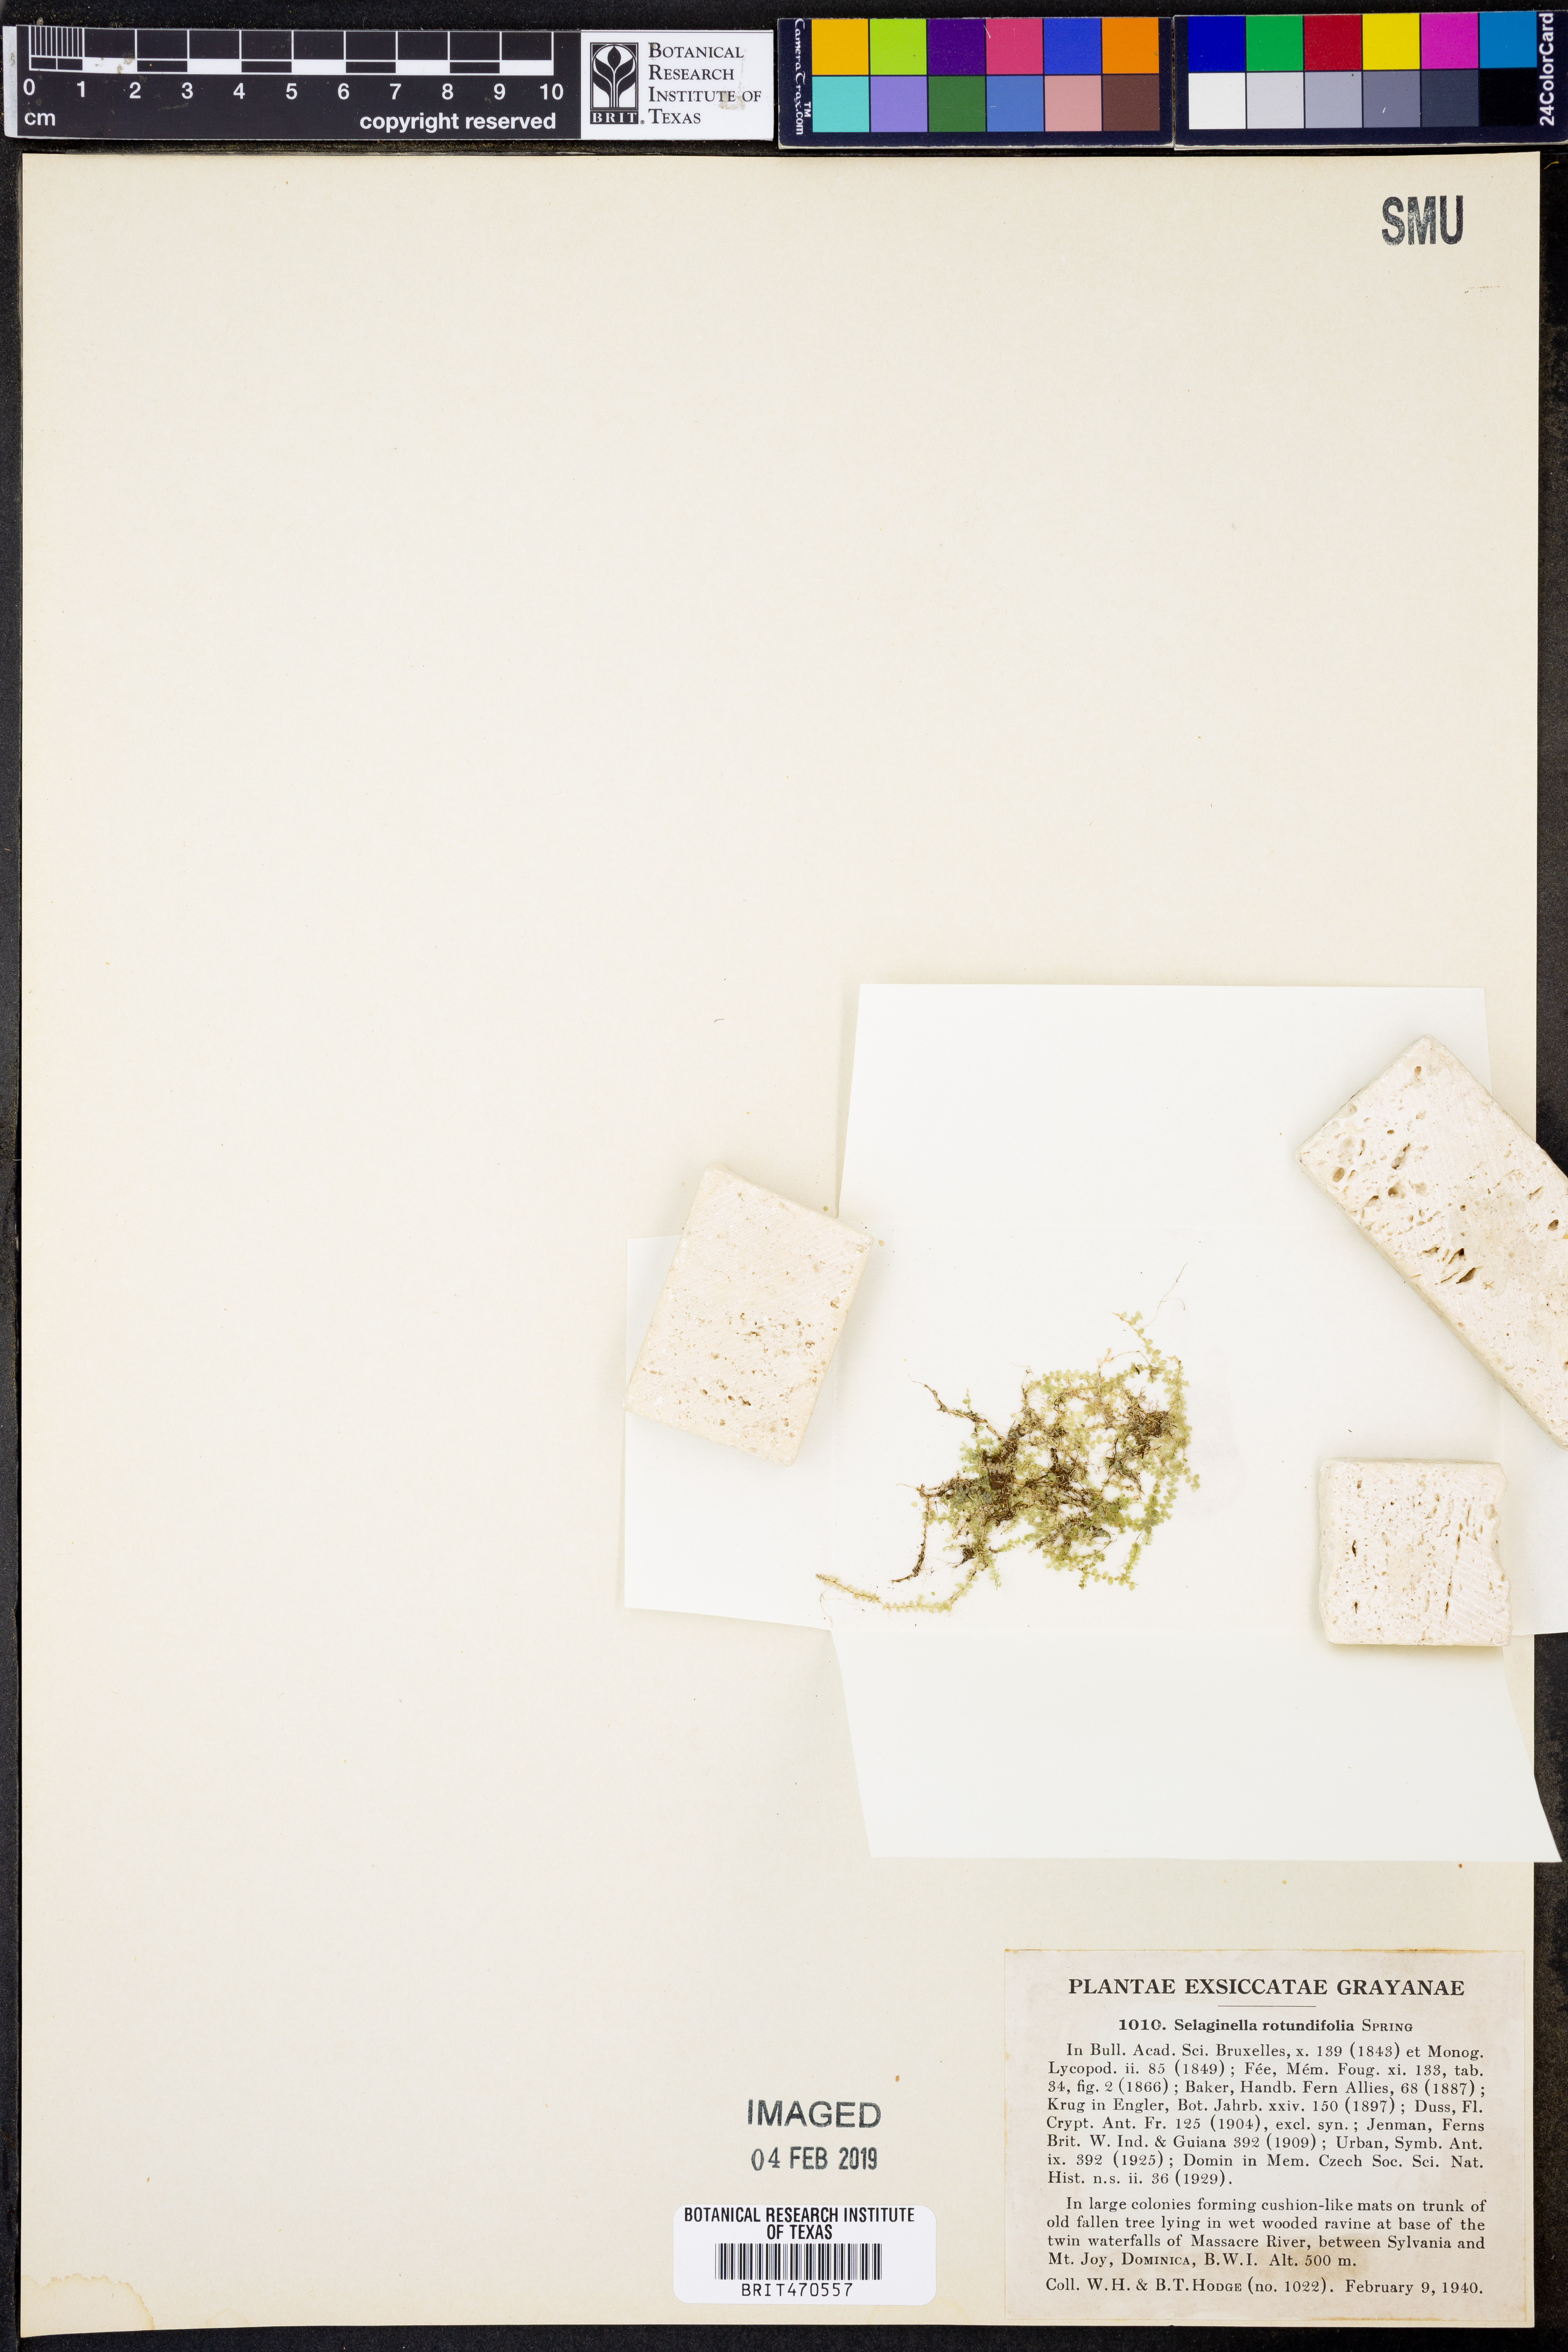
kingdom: Plantae
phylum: Tracheophyta
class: Lycopodiopsida
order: Selaginellales
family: Selaginellaceae
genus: Selaginella
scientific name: Selaginella rotundifolia
